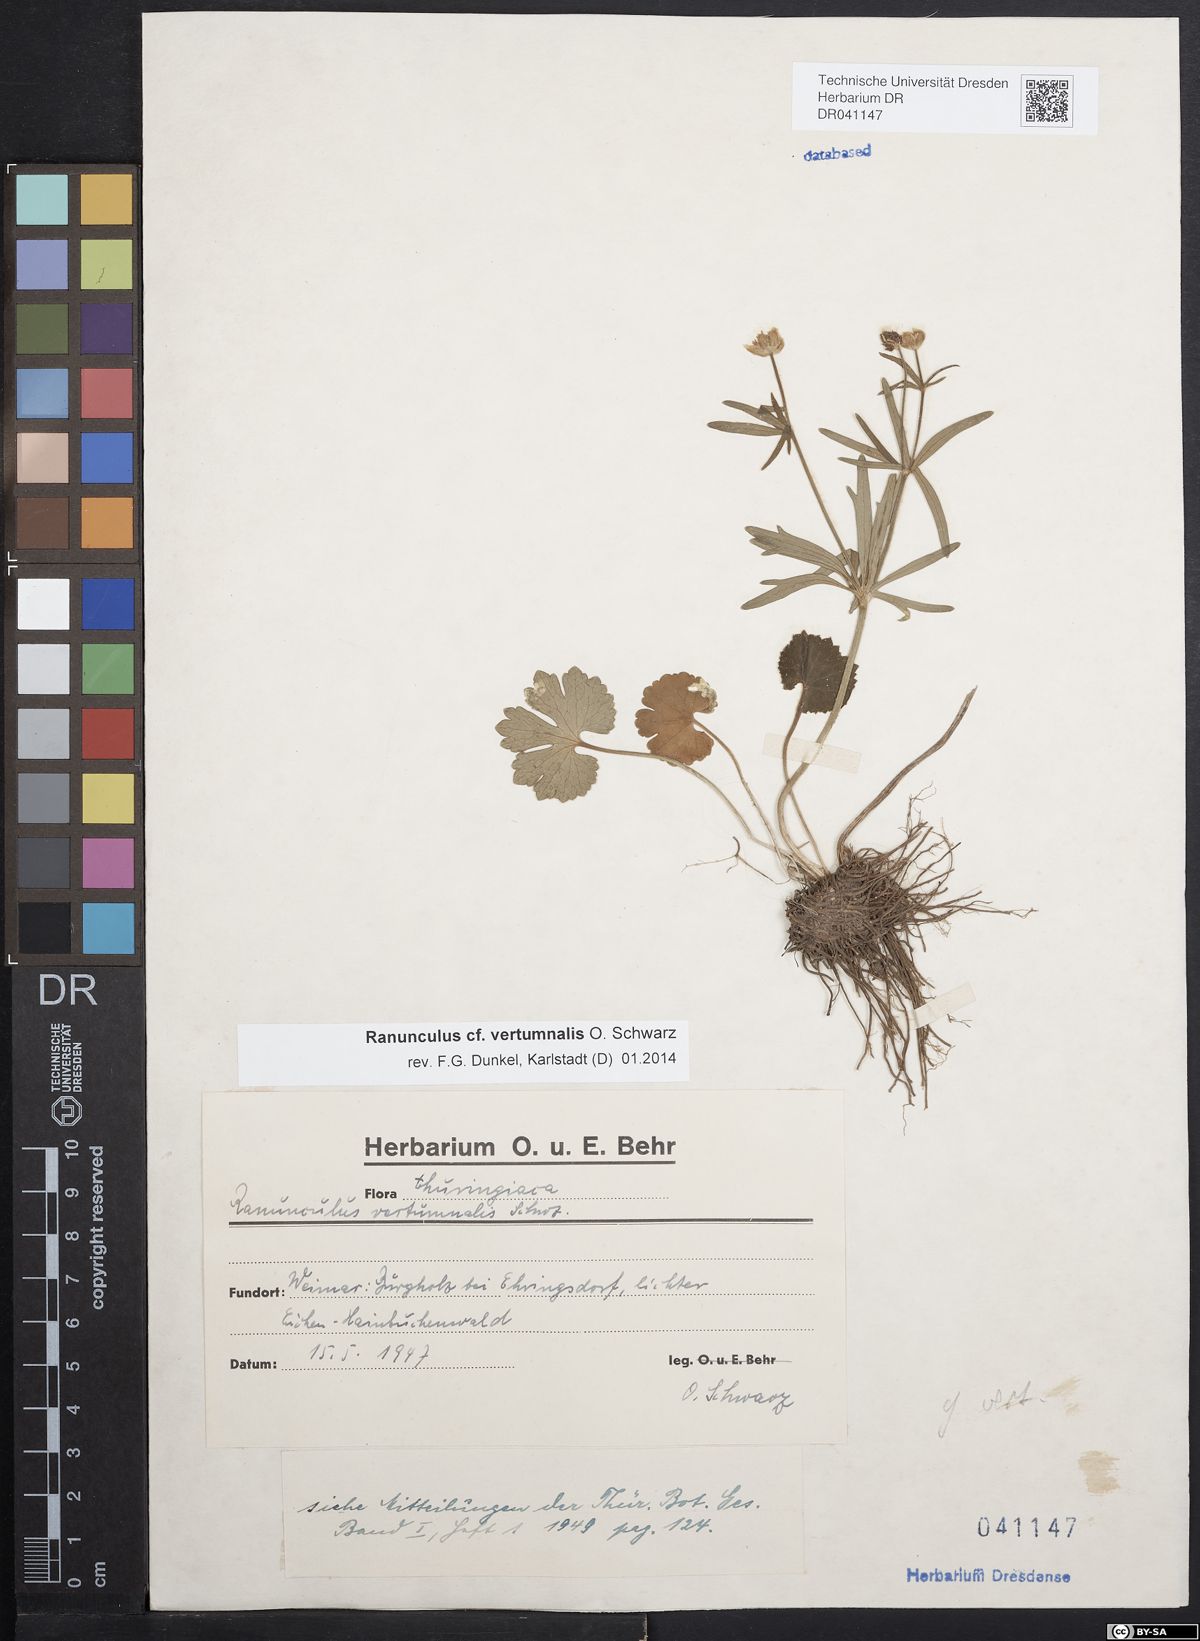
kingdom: Plantae
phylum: Tracheophyta
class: Magnoliopsida
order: Ranunculales
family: Ranunculaceae
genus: Ranunculus
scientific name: Ranunculus vertumnalis
